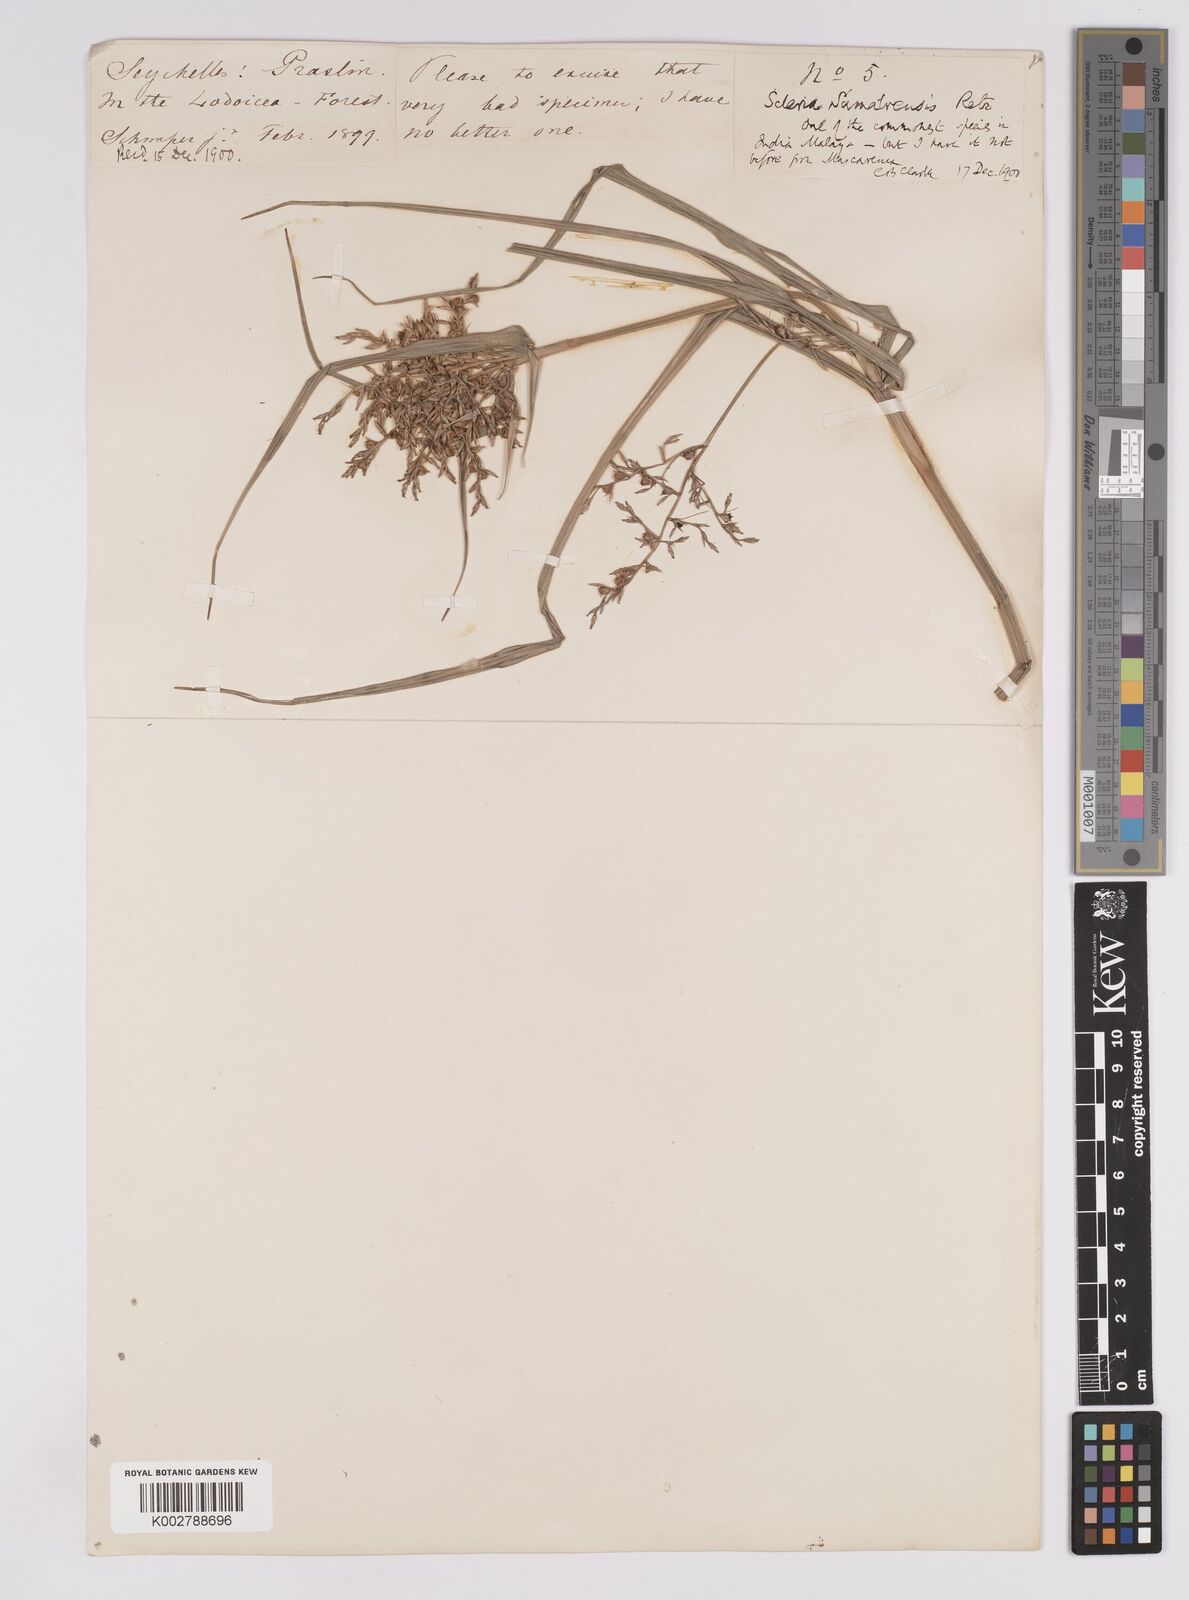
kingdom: Plantae
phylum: Tracheophyta
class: Liliopsida
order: Poales
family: Cyperaceae
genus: Scleria
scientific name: Scleria sumatrensis
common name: Sumatran scleria
